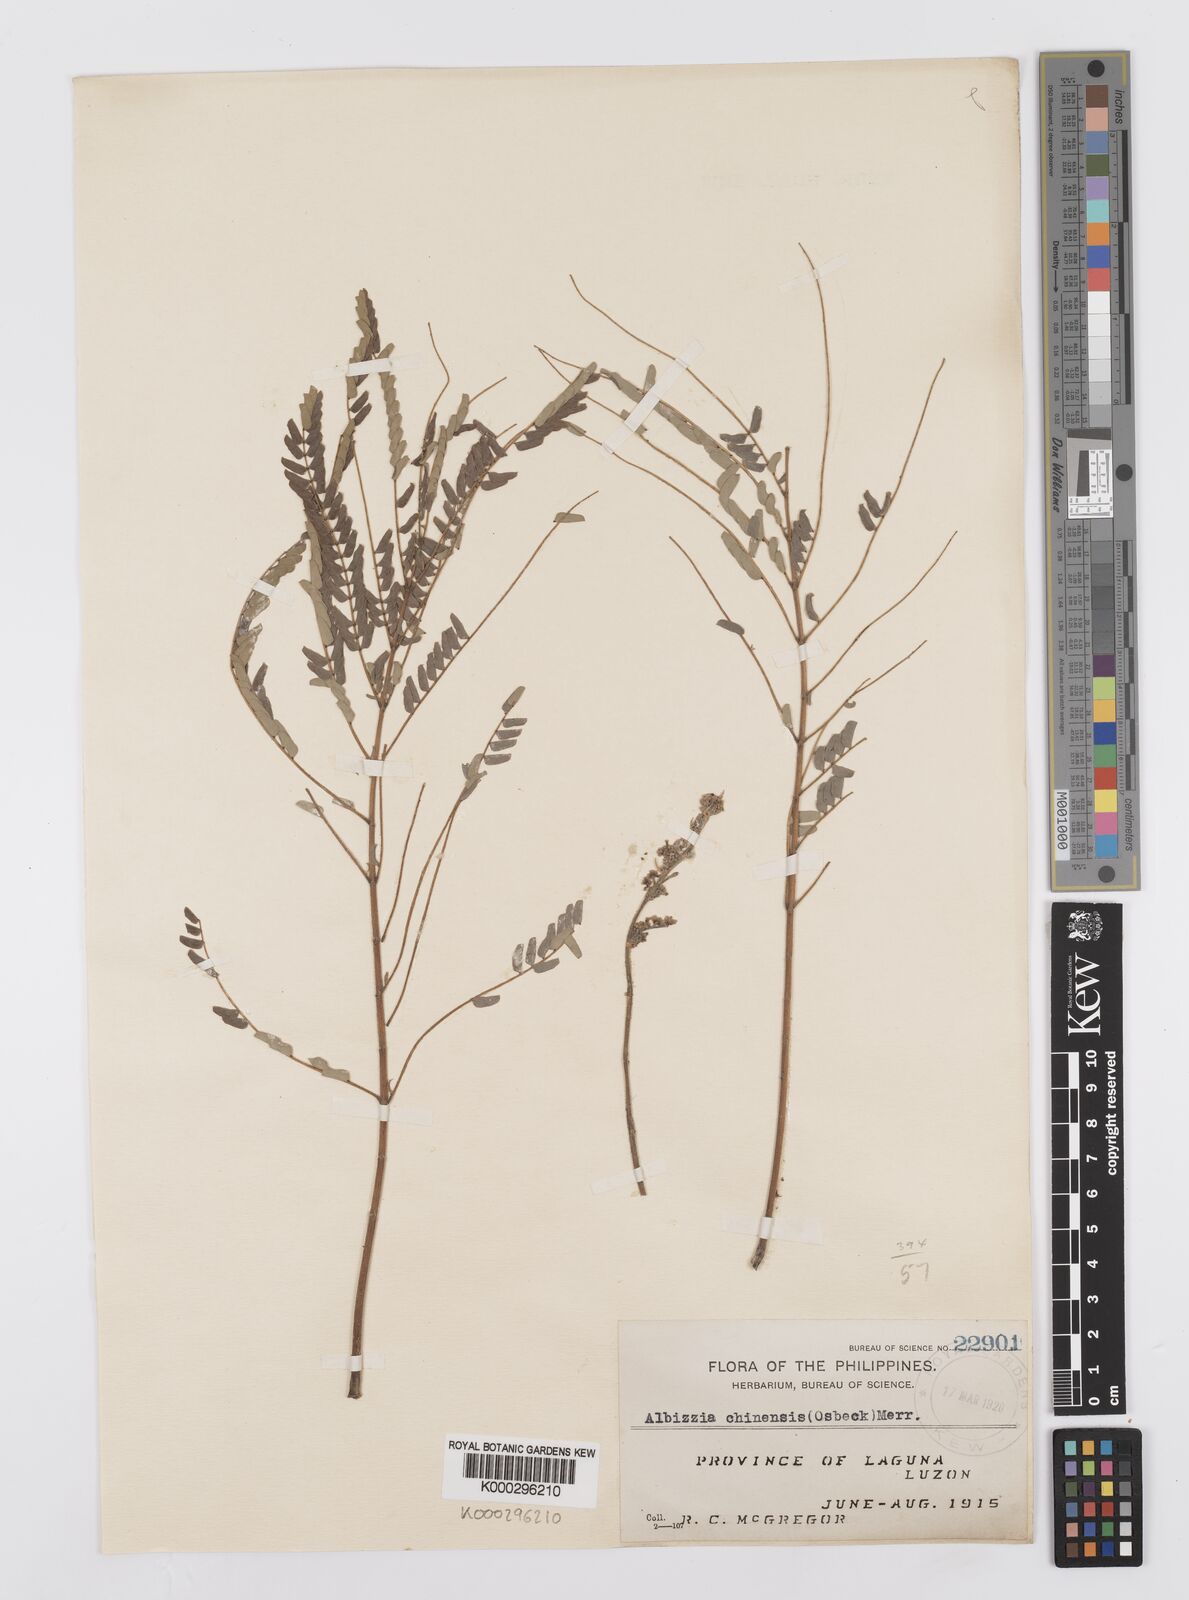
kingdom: Plantae
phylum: Tracheophyta
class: Magnoliopsida
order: Fabales
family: Fabaceae
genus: Albizia
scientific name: Albizia chinensis
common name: Chinese albizia
